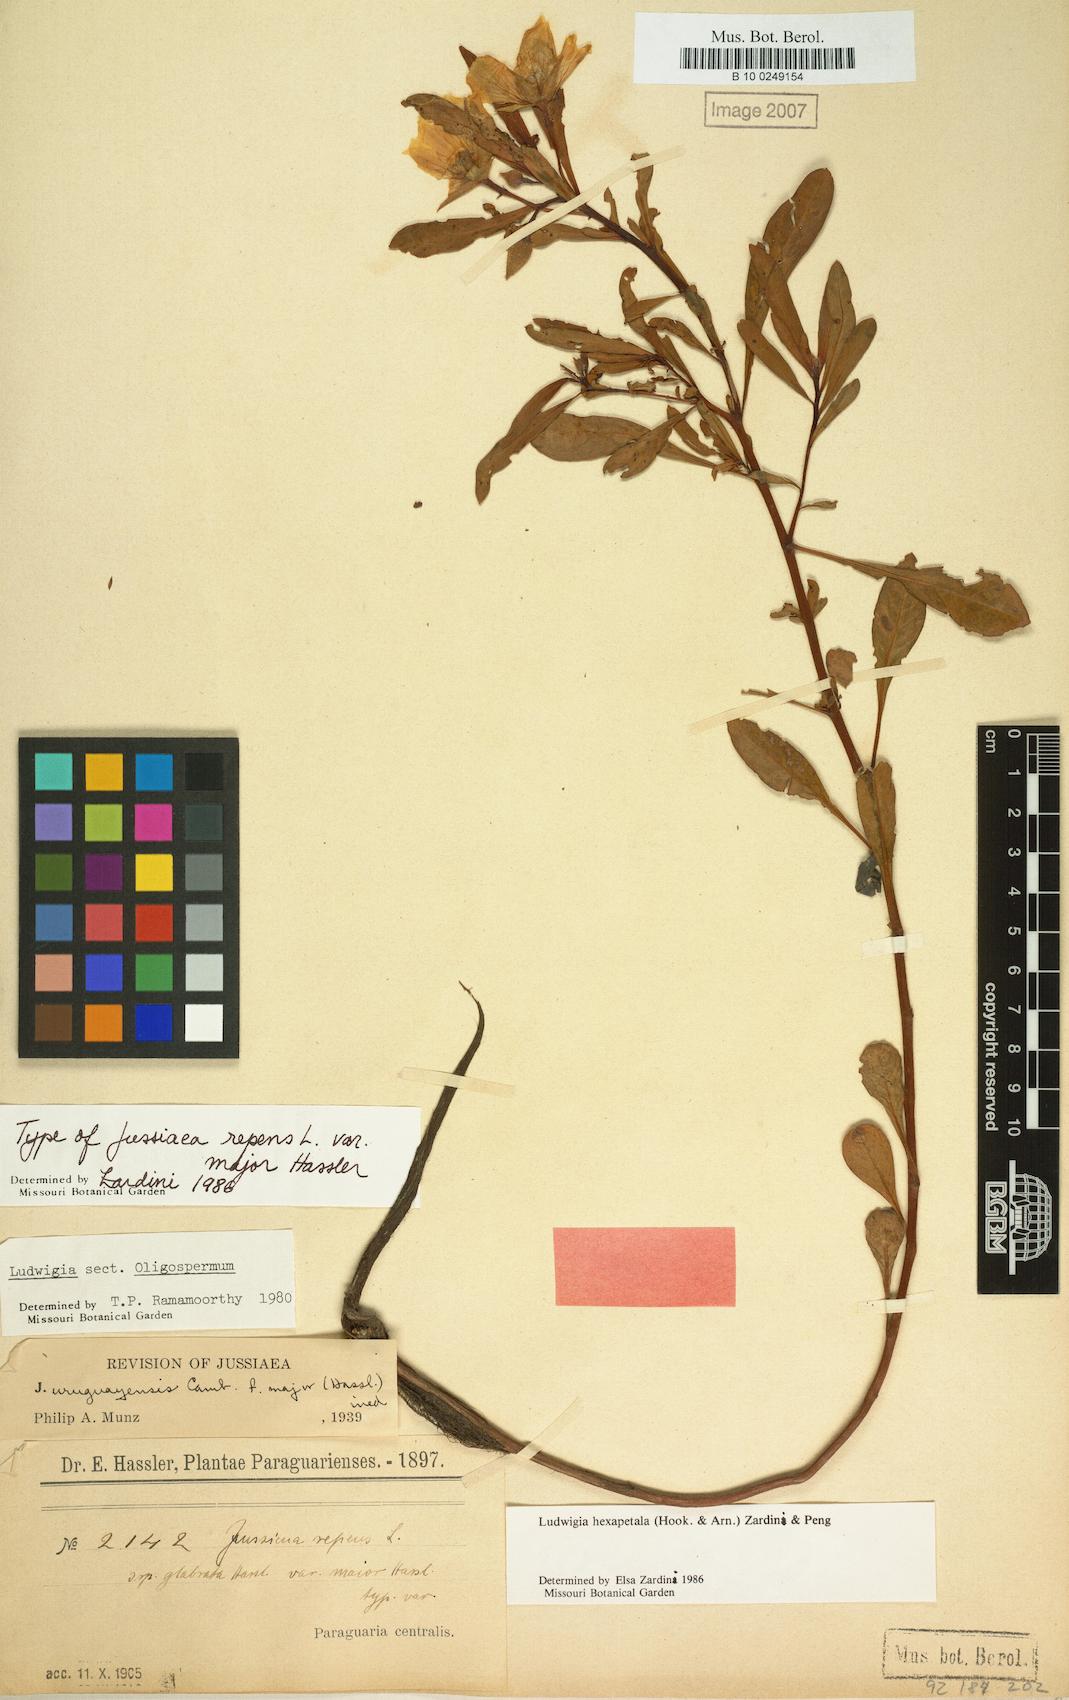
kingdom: Plantae
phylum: Tracheophyta
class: Magnoliopsida
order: Myrtales
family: Onagraceae
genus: Ludwigia
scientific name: Ludwigia hexapetala
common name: Water-primrose
